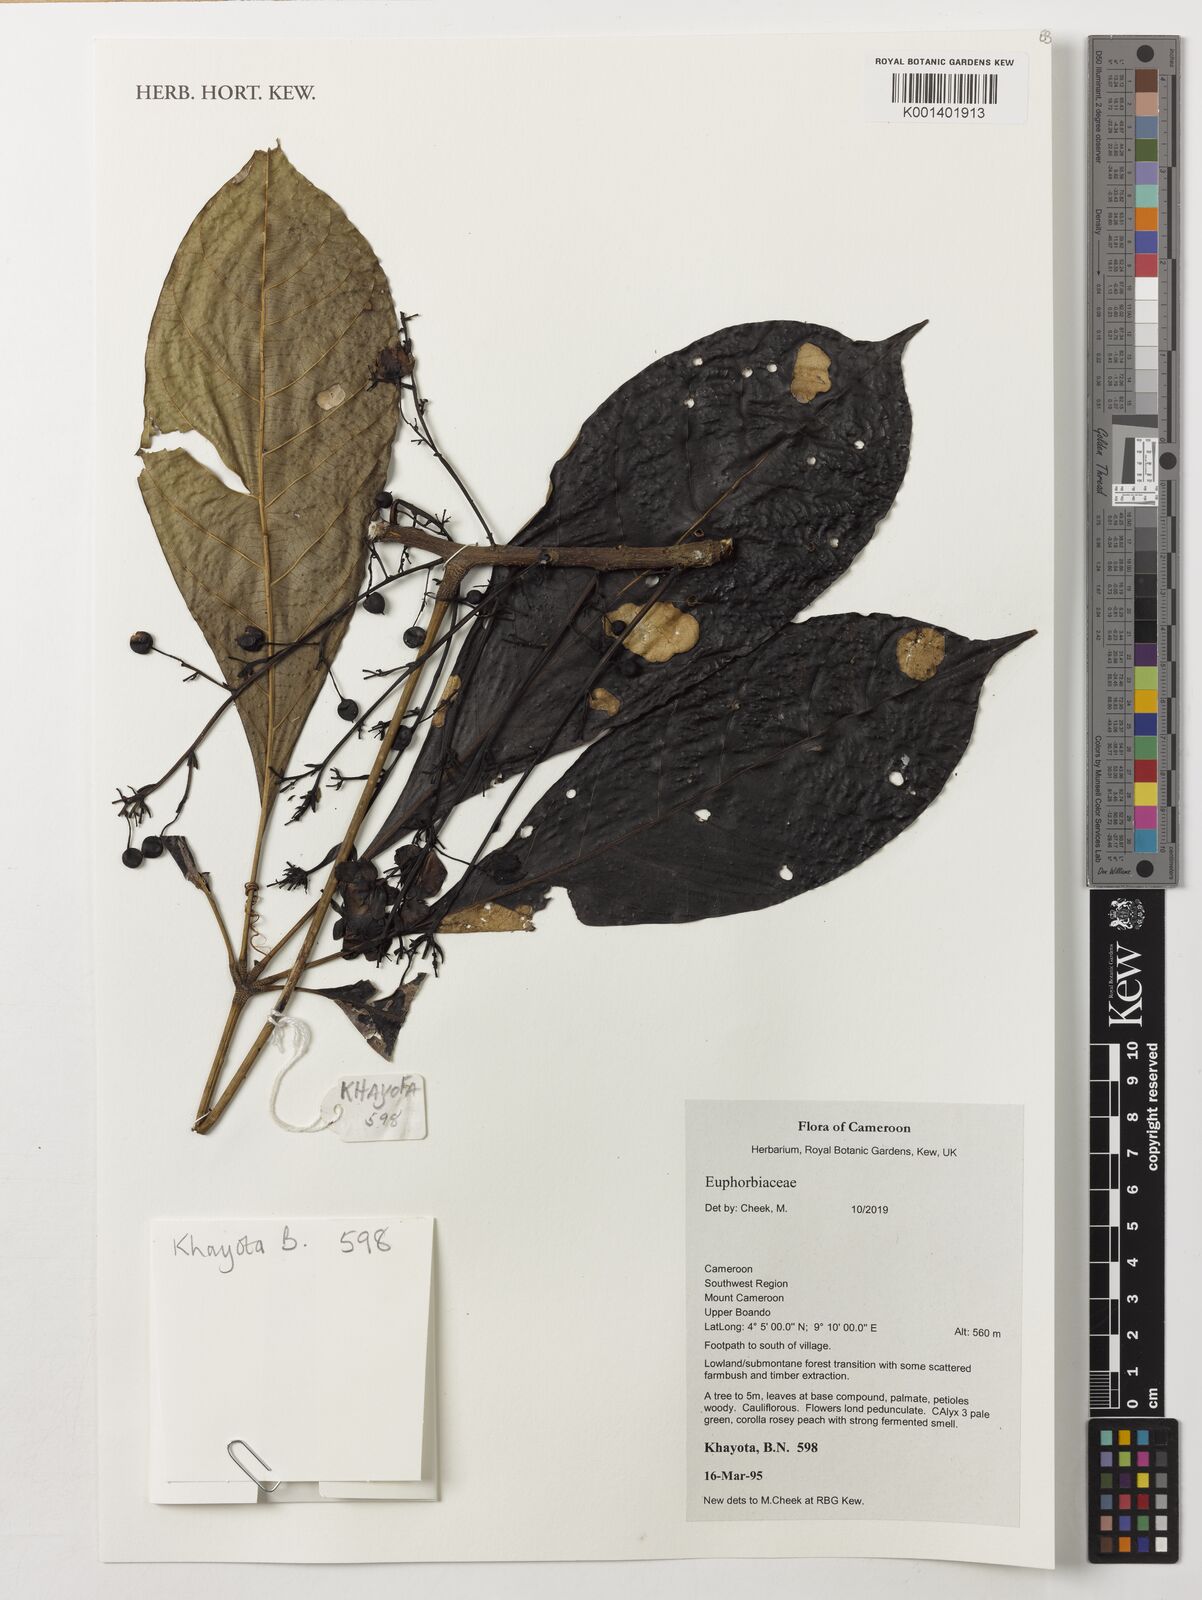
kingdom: Plantae
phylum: Tracheophyta
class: Magnoliopsida
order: Malpighiales
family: Euphorbiaceae
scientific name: Euphorbiaceae
